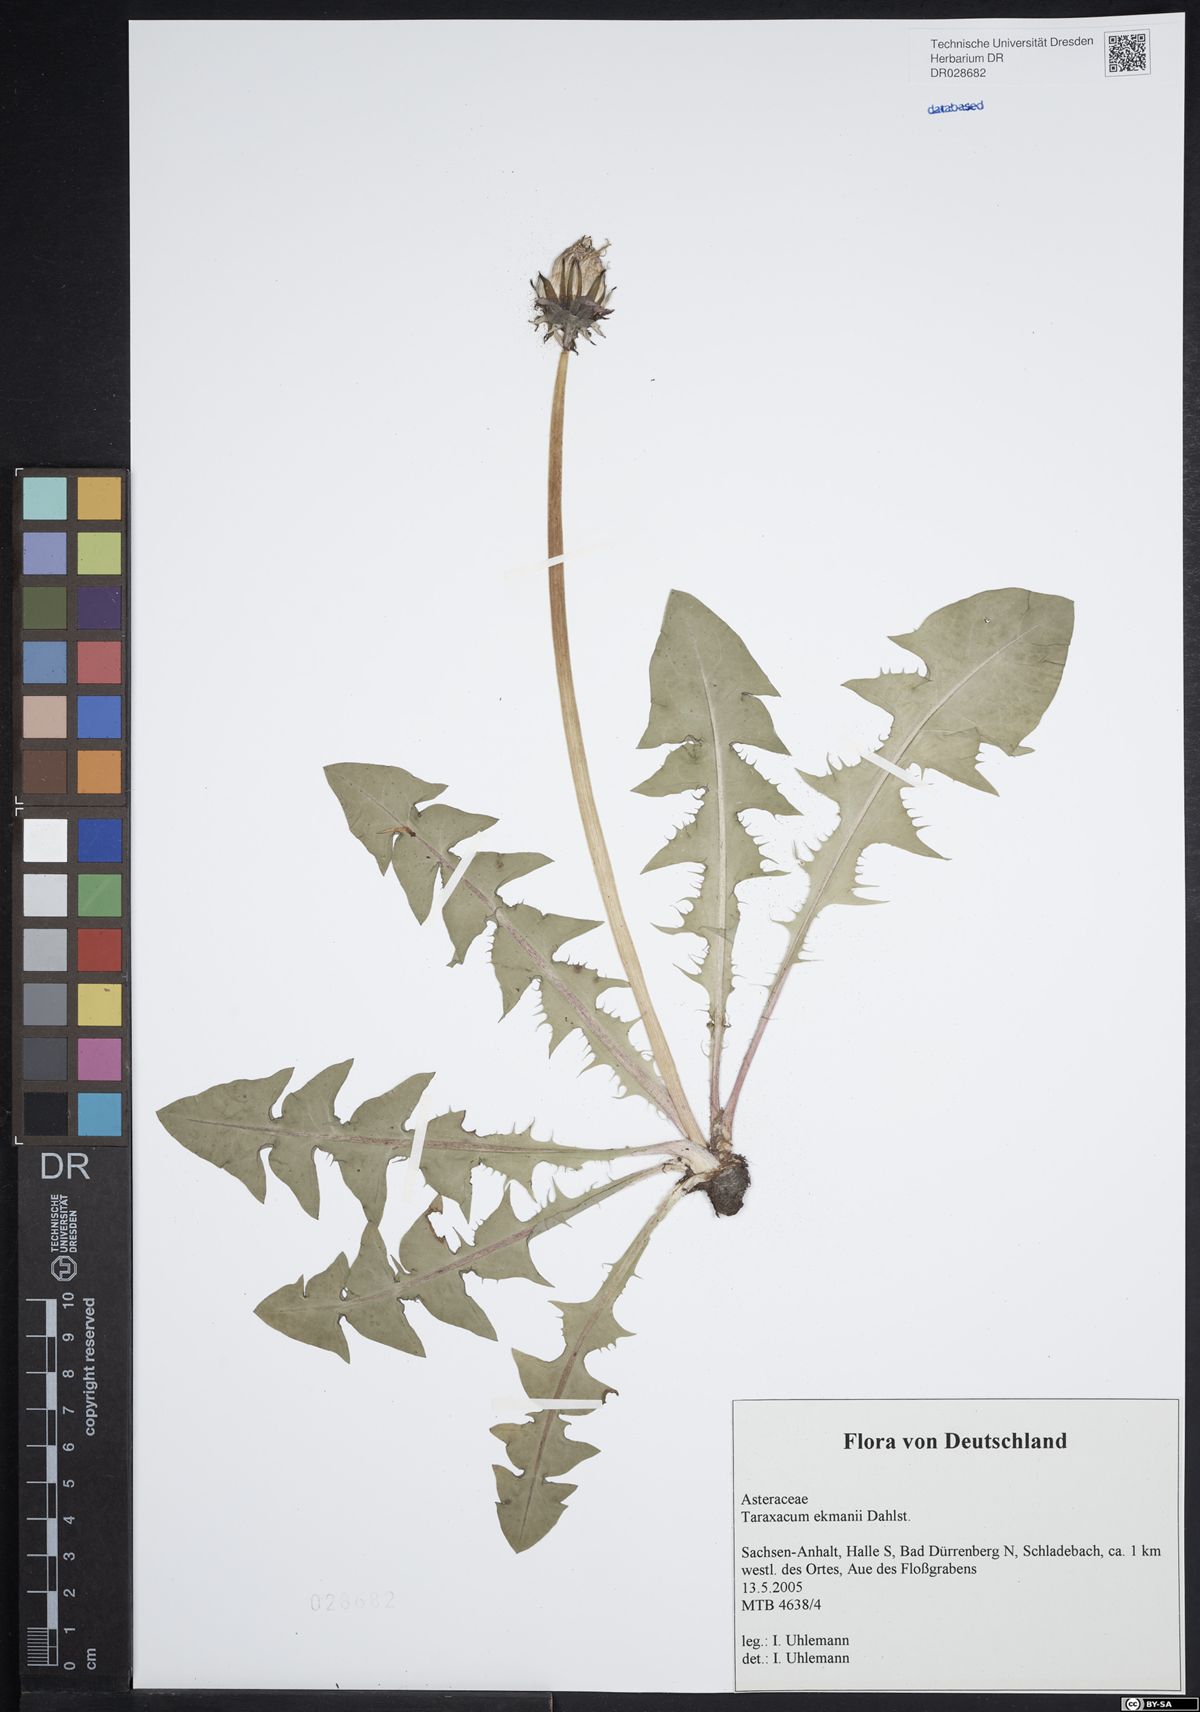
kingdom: Plantae
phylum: Tracheophyta
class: Magnoliopsida
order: Asterales
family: Asteraceae
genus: Taraxacum
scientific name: Taraxacum ekmanii
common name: Ekman's dandelion
